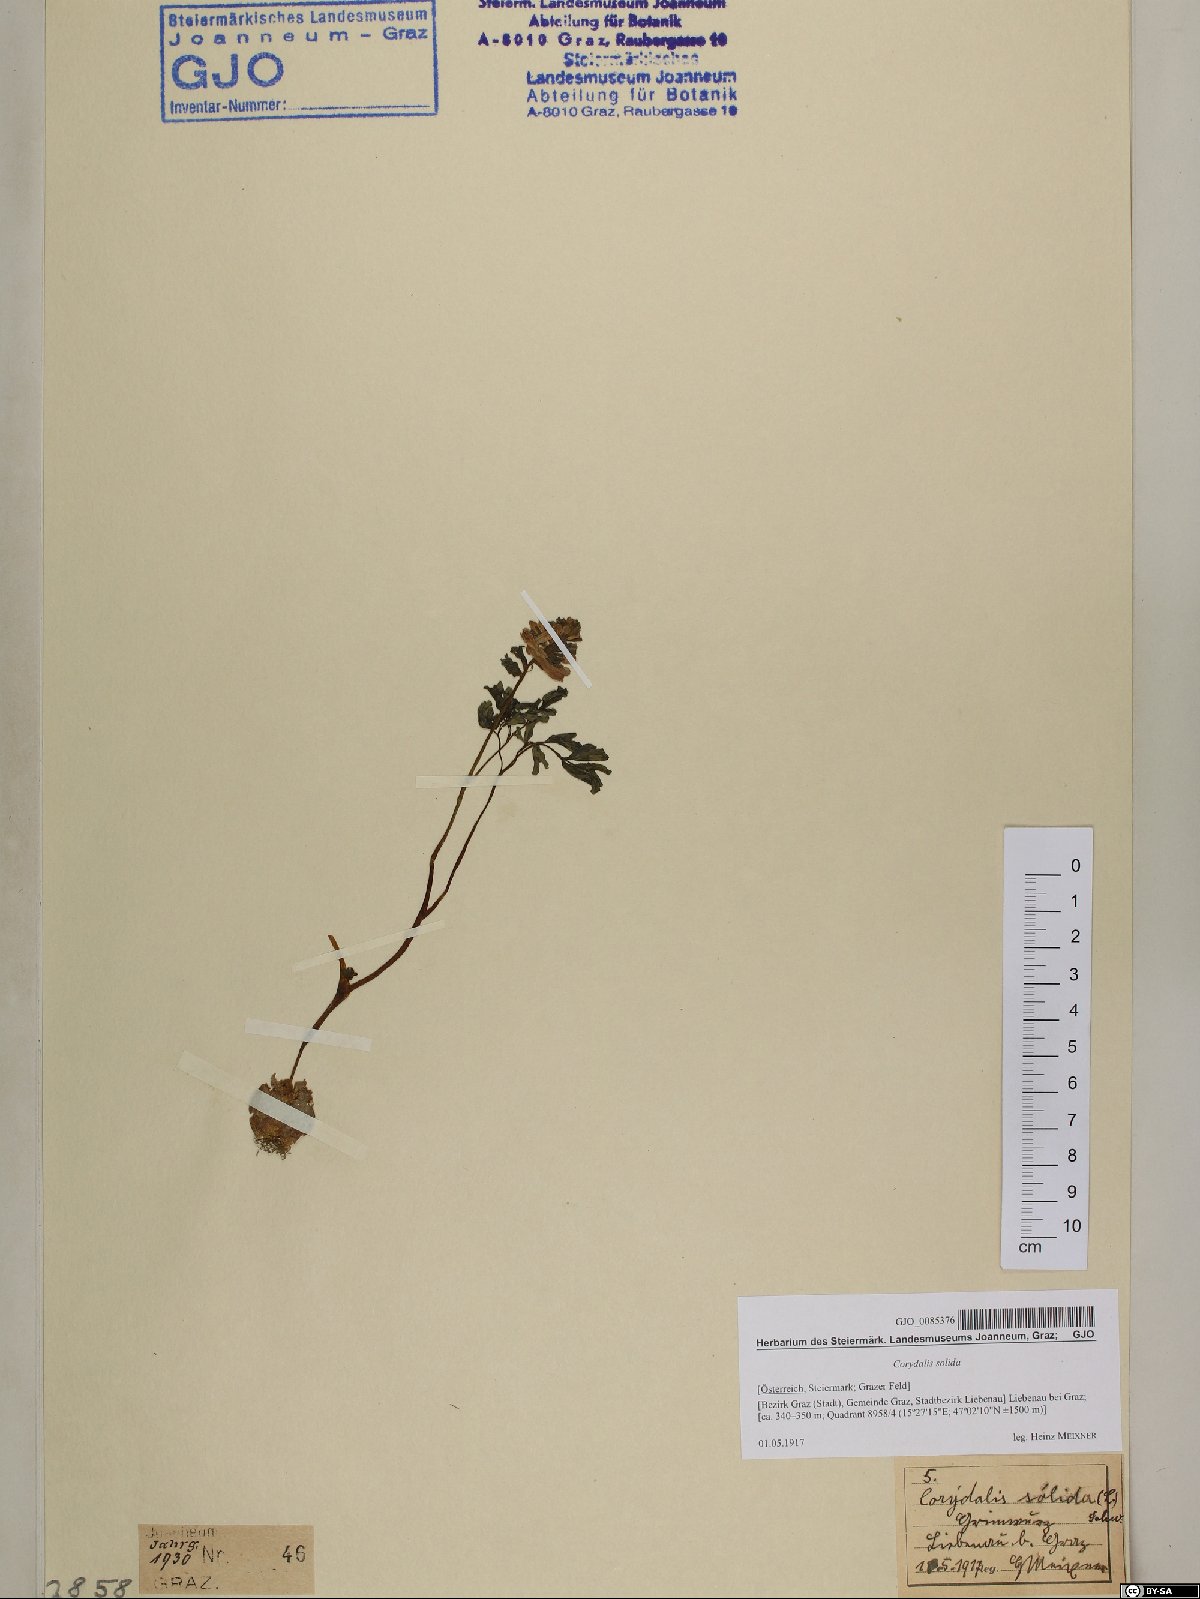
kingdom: Plantae
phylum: Tracheophyta
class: Magnoliopsida
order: Ranunculales
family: Papaveraceae
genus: Corydalis
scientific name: Corydalis solida
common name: Bird-in-a-bush
